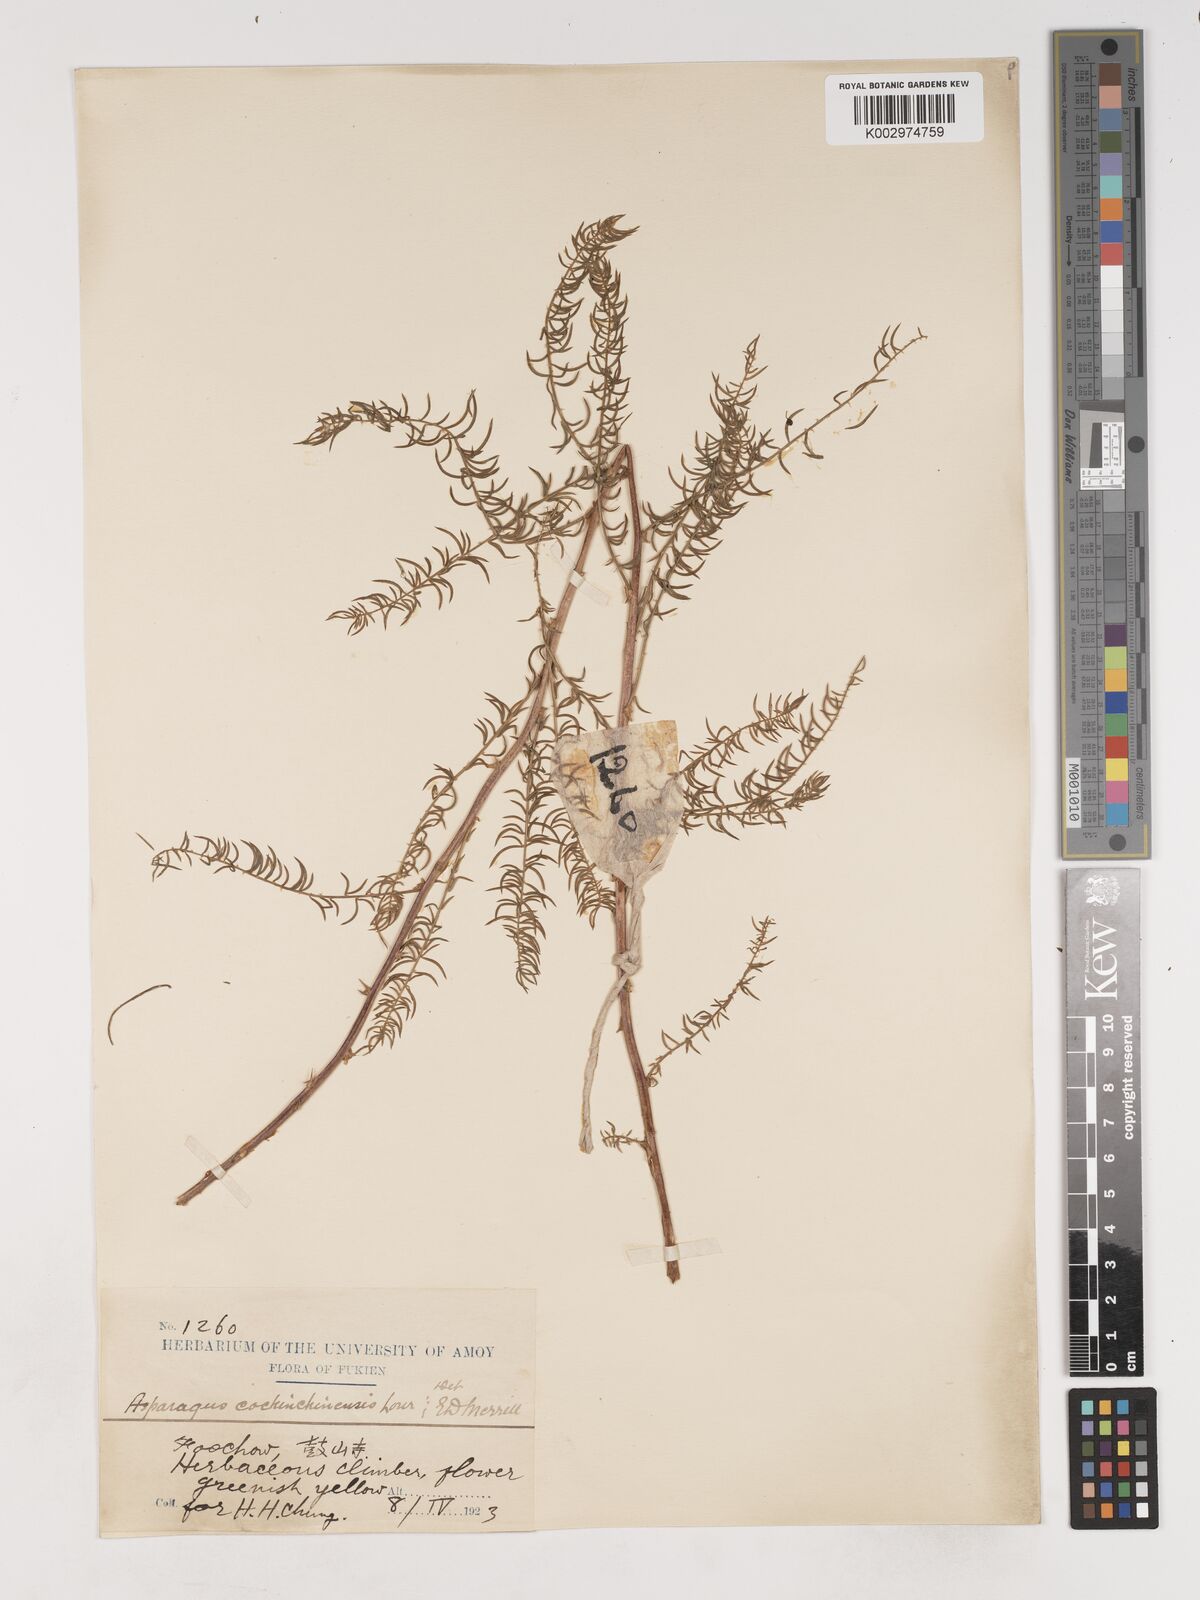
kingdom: Plantae
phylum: Tracheophyta
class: Liliopsida
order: Asparagales
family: Asparagaceae
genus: Asparagus
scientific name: Asparagus cochinchinensis
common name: Chinese asparagus
